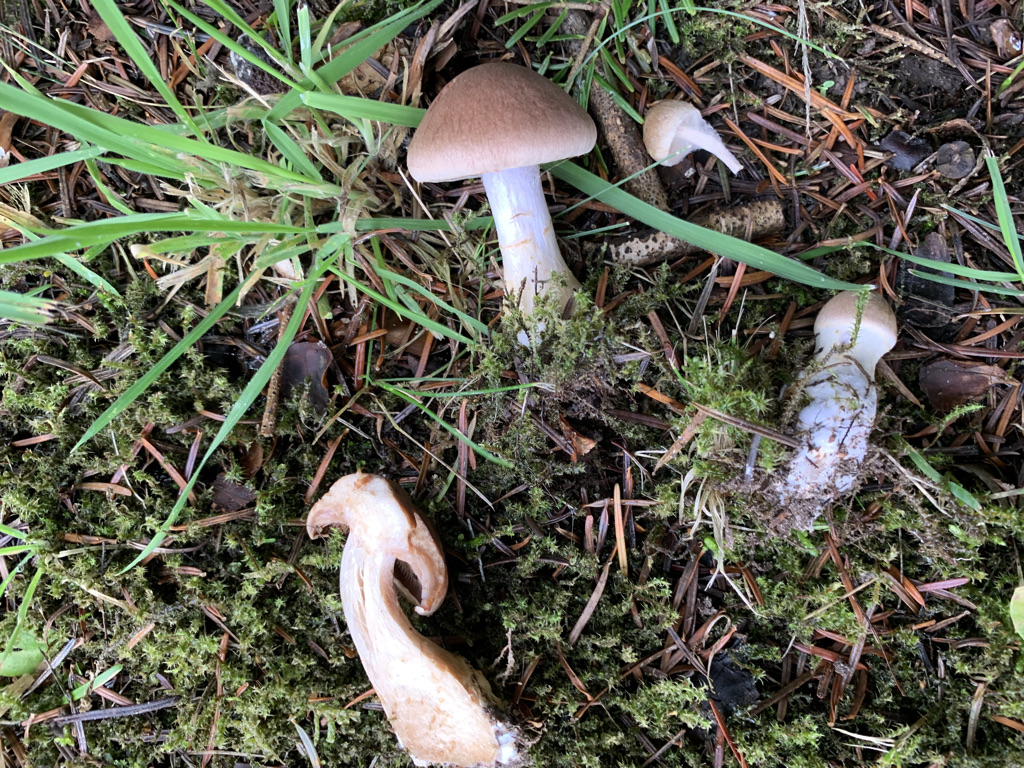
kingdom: Fungi
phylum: Basidiomycota
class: Agaricomycetes
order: Agaricales
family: Cortinariaceae
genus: Cortinarius
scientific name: Cortinarius caninus
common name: gran-slørhat
